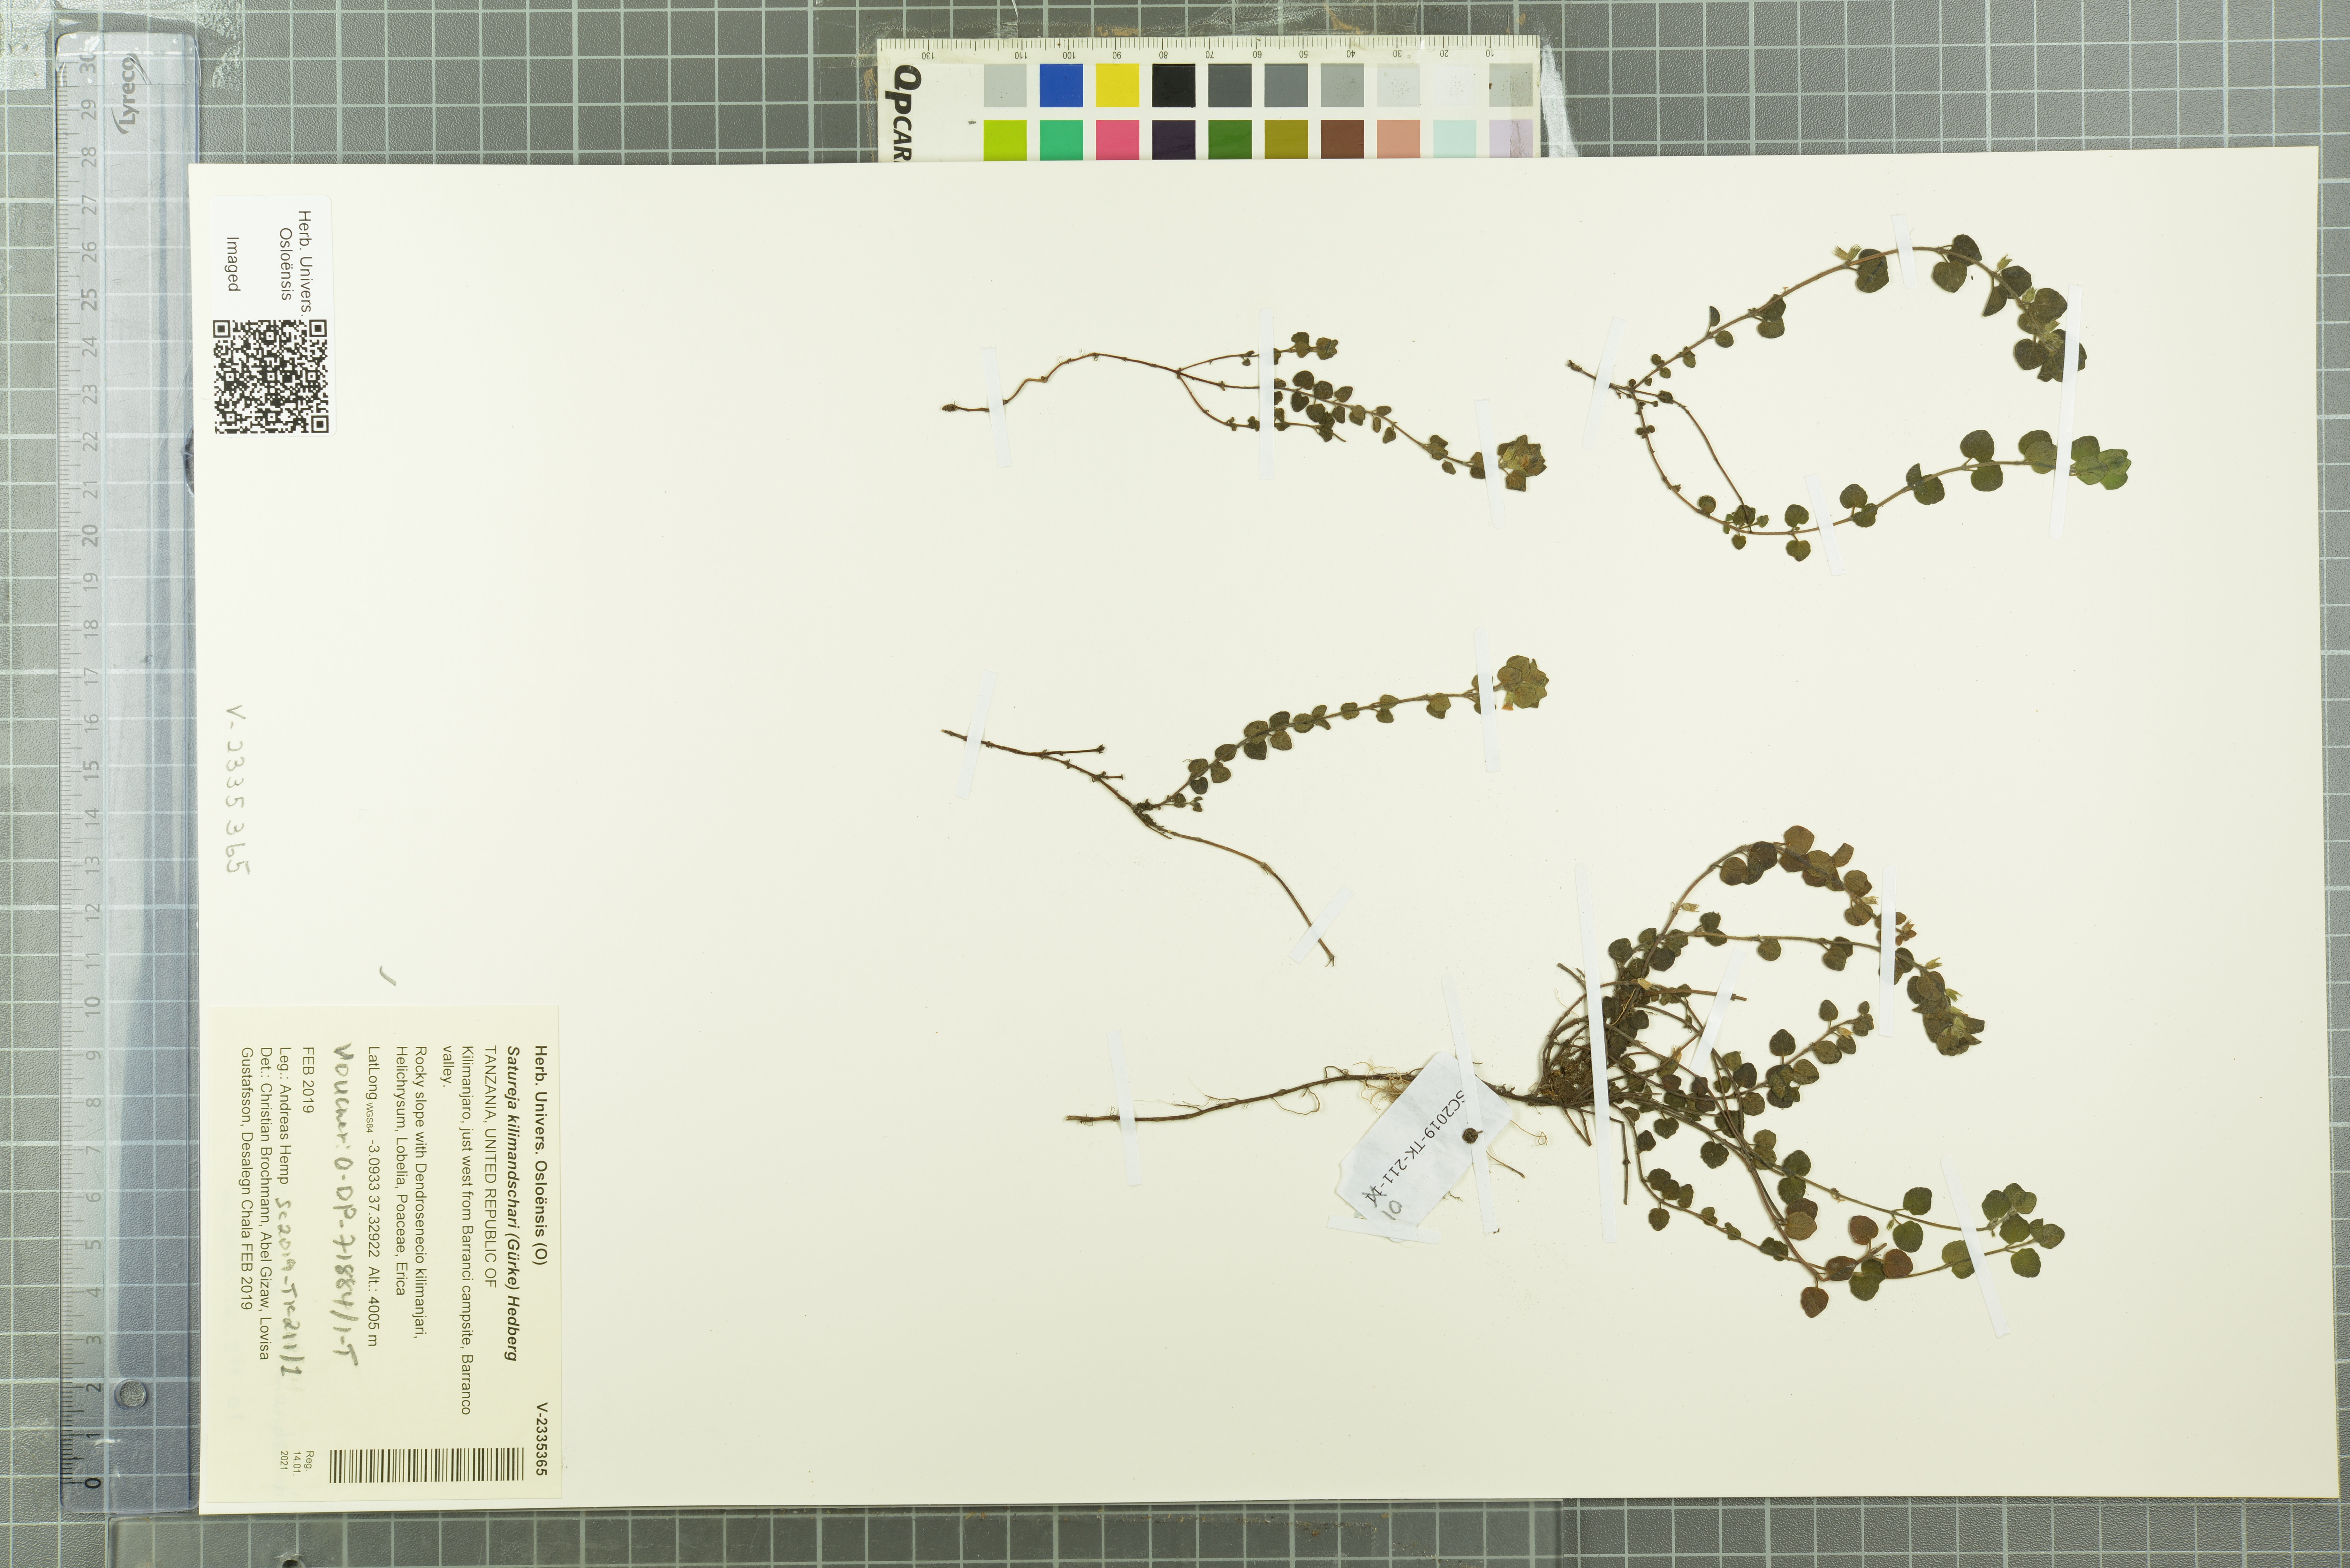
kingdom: Plantae
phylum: Tracheophyta
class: Magnoliopsida
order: Lamiales
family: Lamiaceae
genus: Clinopodium
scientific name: Clinopodium kilimandschari
